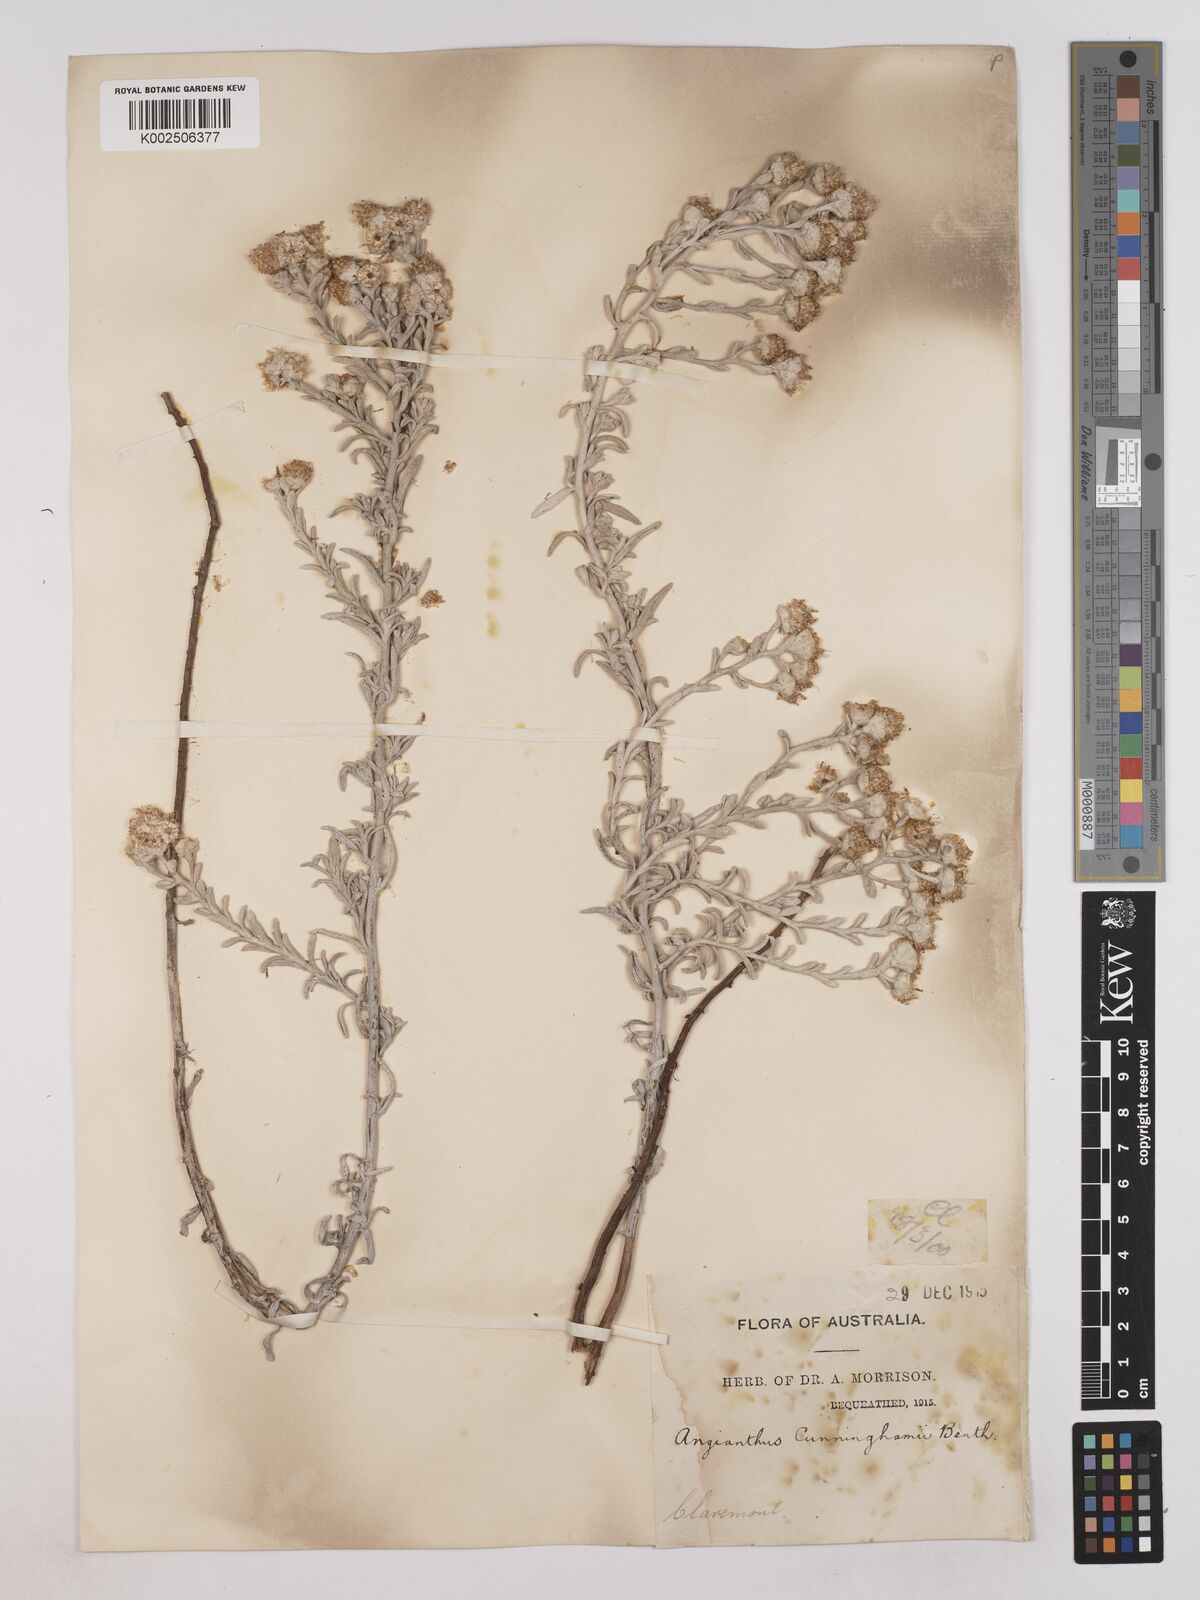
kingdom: Plantae
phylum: Tracheophyta
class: Magnoliopsida
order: Asterales
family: Asteraceae
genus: Angianthus
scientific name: Angianthus cunninghamii
